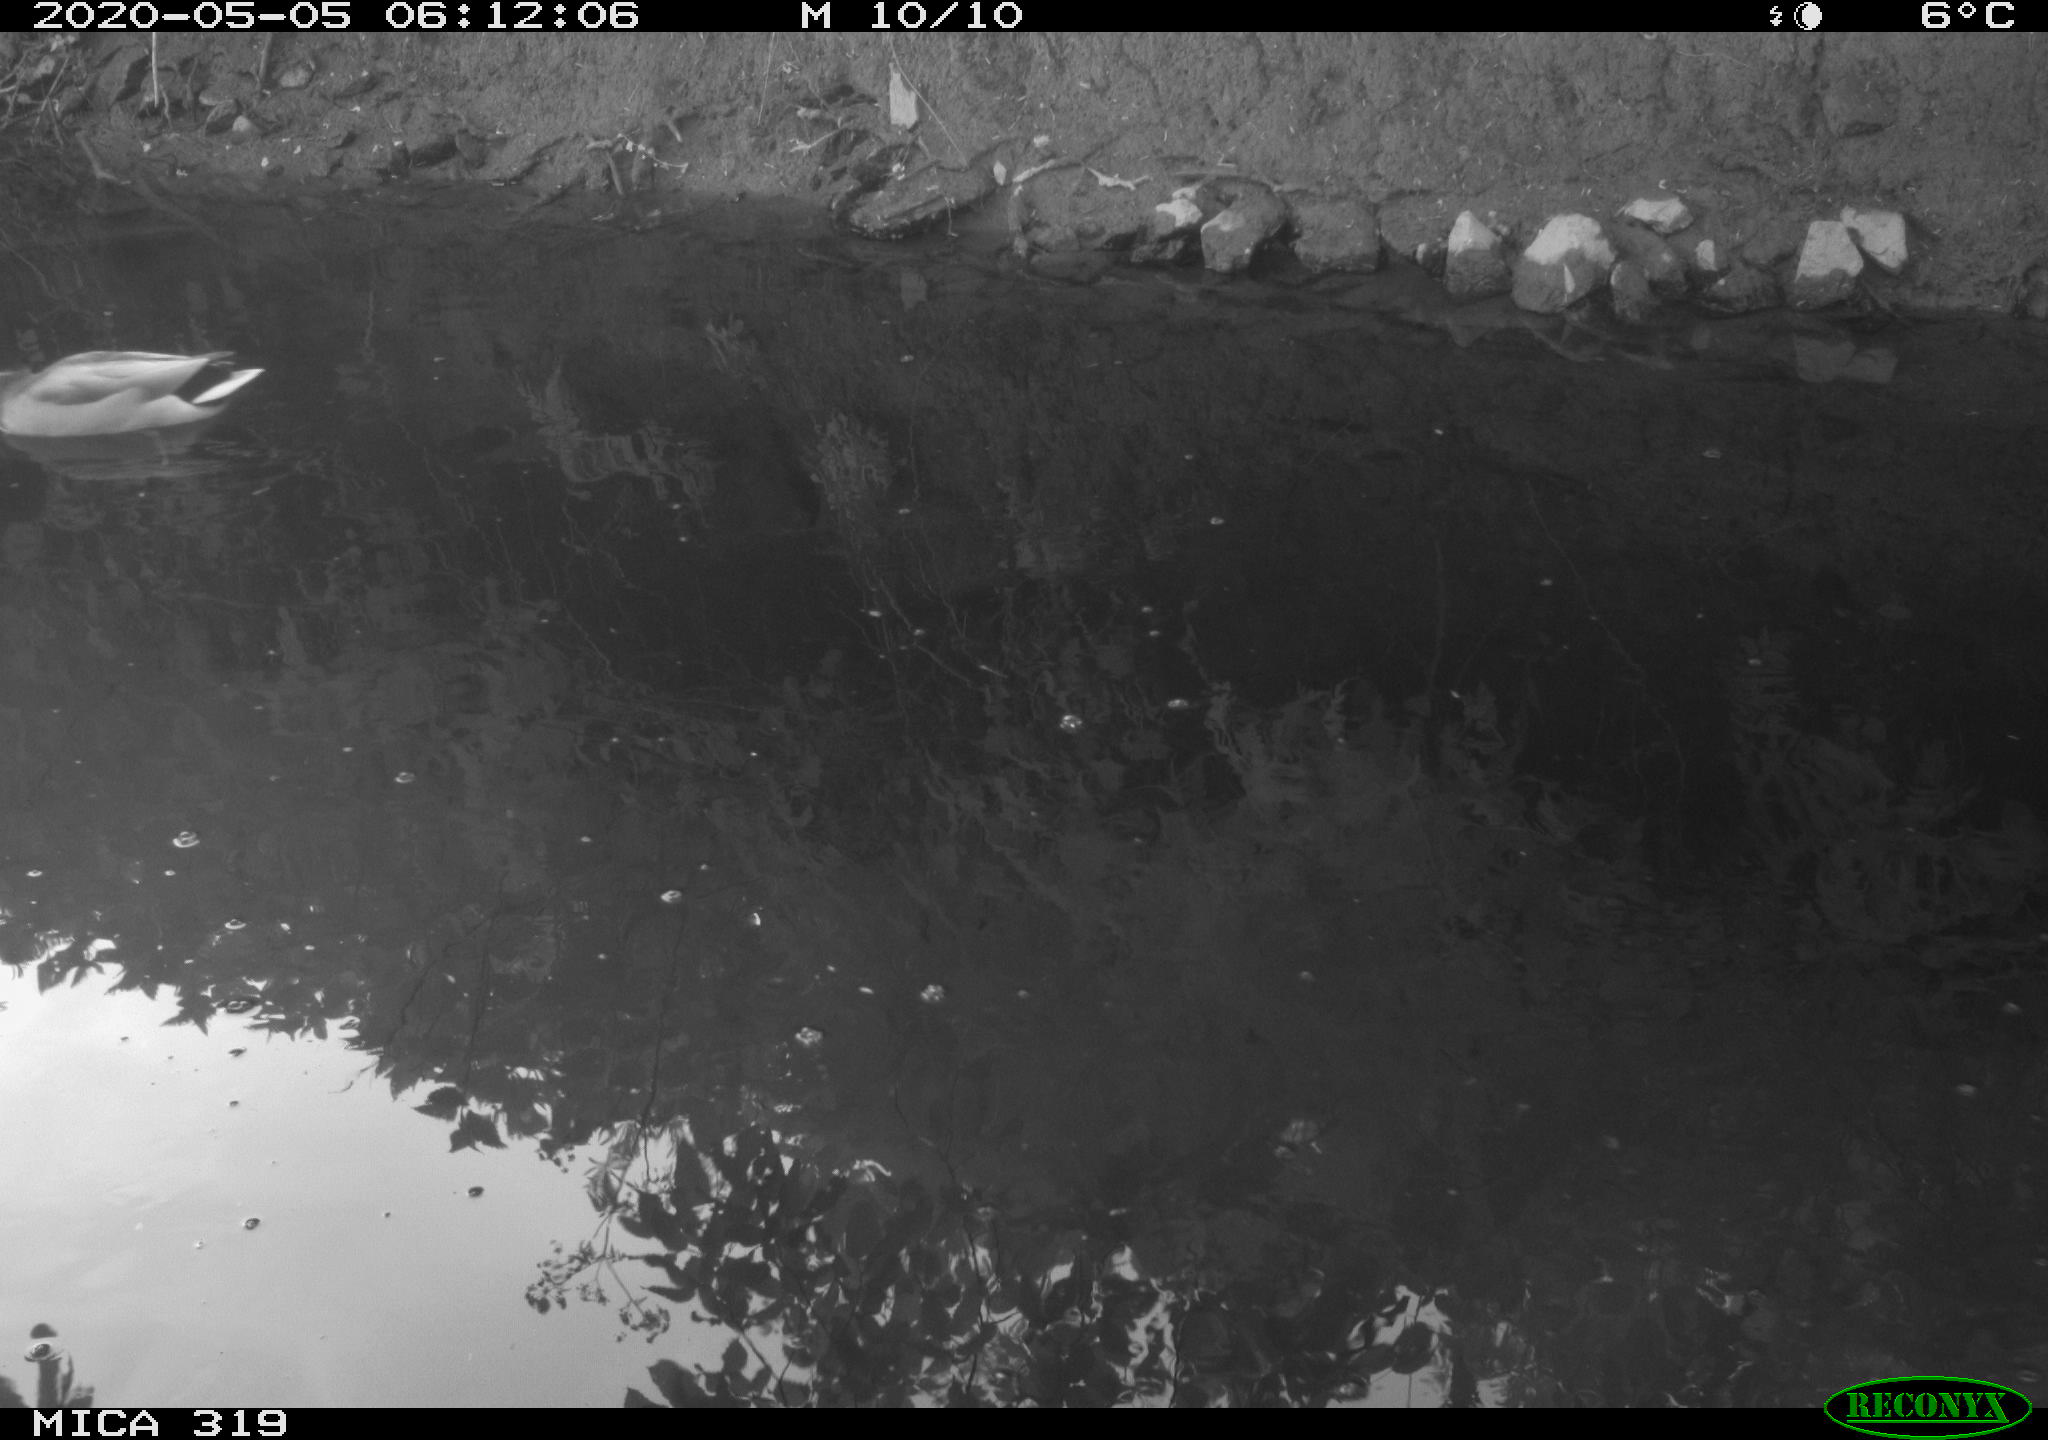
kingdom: Animalia
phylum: Chordata
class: Aves
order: Anseriformes
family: Anatidae
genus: Anas
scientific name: Anas platyrhynchos
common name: Mallard
